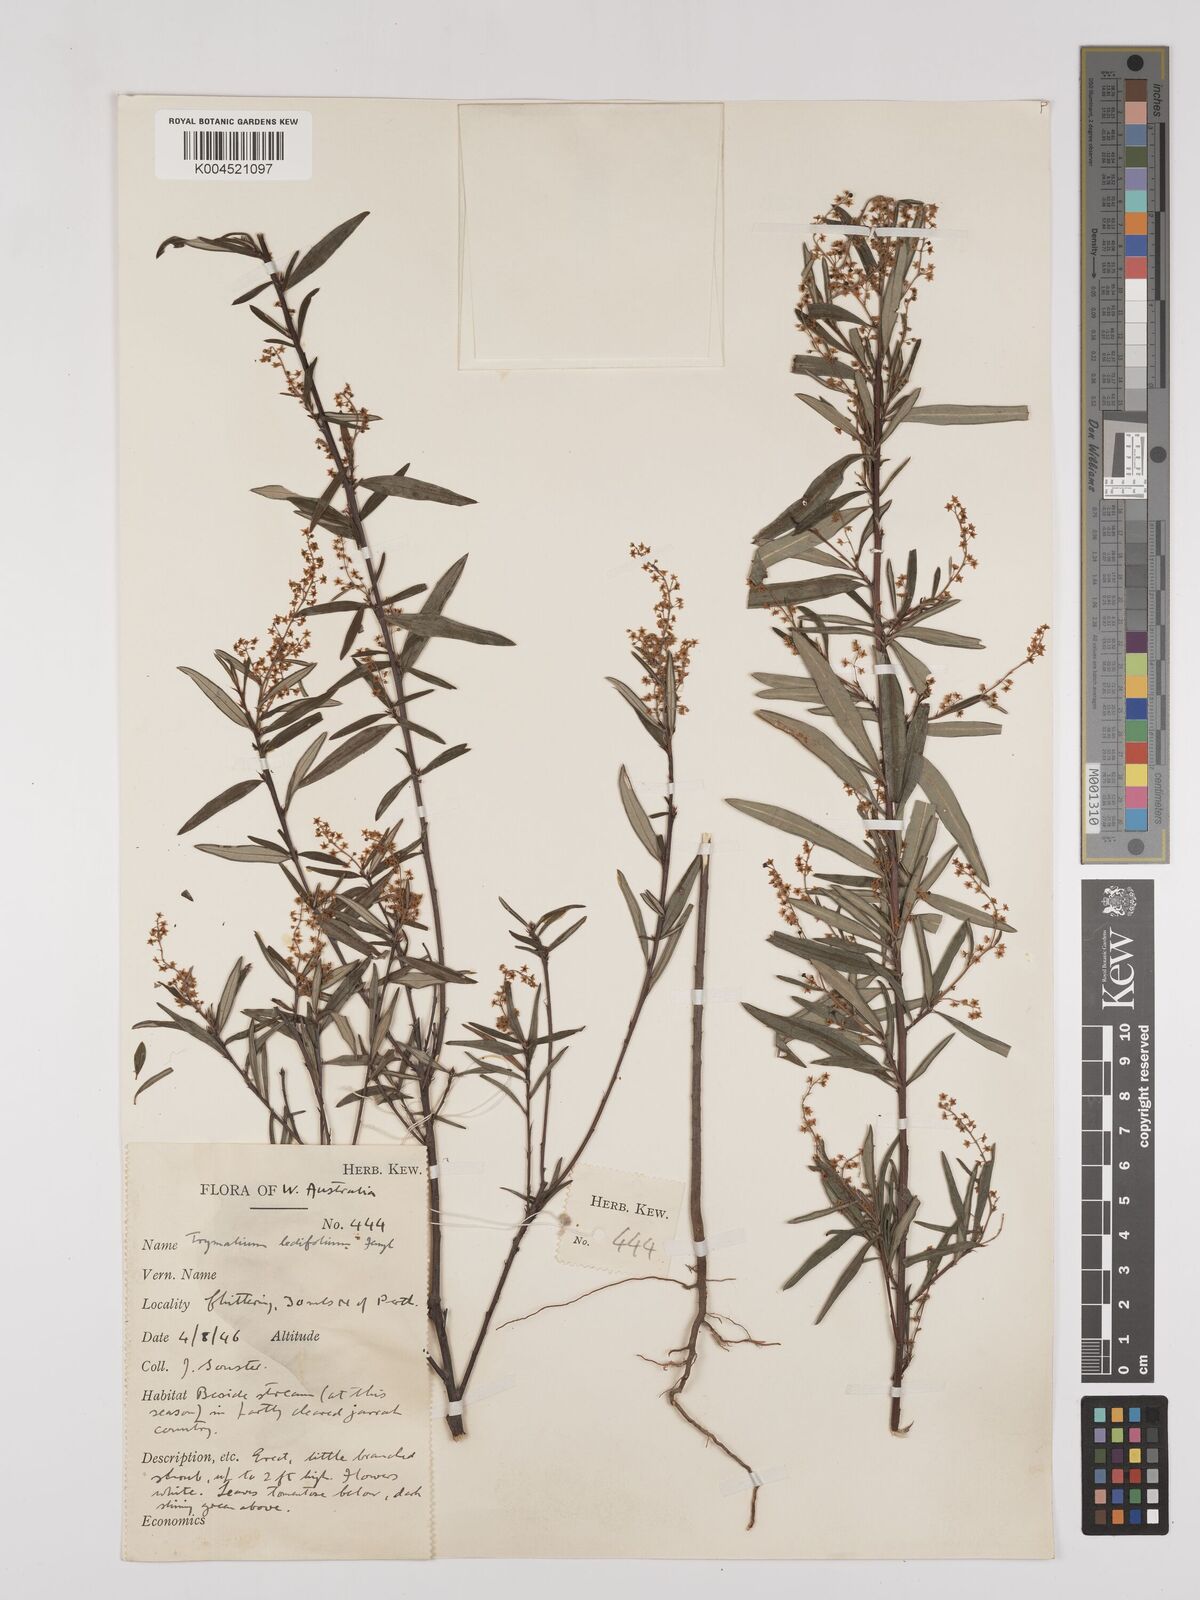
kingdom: Plantae
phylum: Tracheophyta
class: Magnoliopsida
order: Rosales
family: Rhamnaceae
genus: Trymalium
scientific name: Trymalium ledifolium
